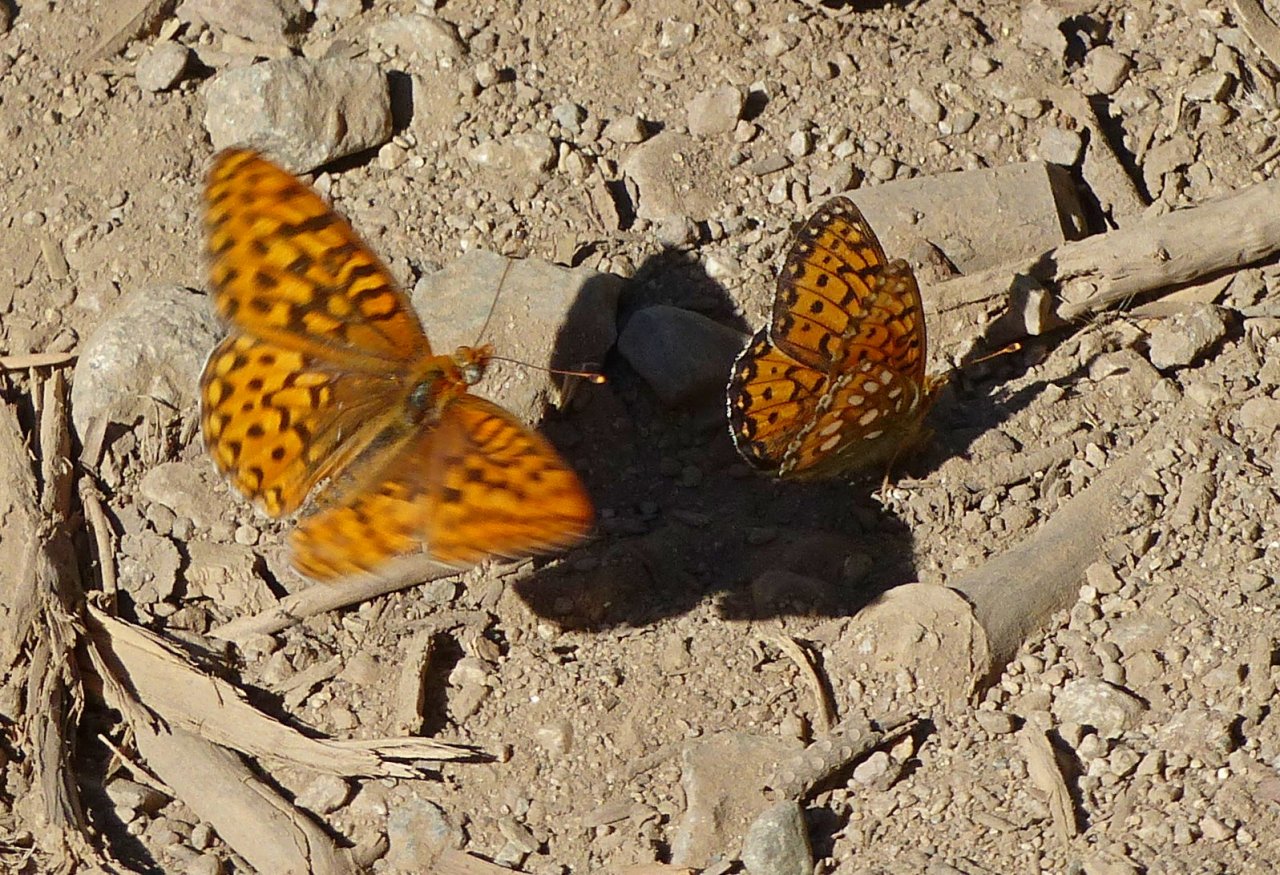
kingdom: Animalia
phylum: Arthropoda
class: Insecta
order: Lepidoptera
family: Nymphalidae
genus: Speyeria
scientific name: Speyeria zerene
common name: Zerene Fritillary
